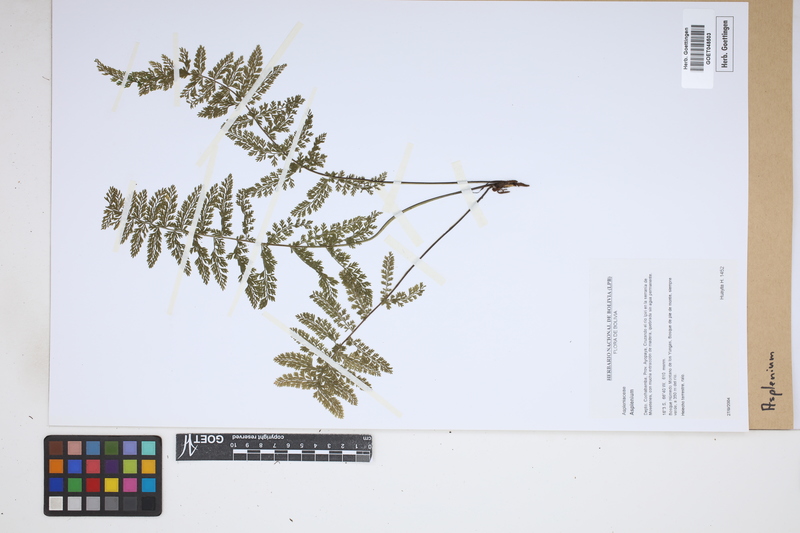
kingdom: Plantae
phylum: Tracheophyta
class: Polypodiopsida
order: Polypodiales
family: Aspleniaceae
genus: Asplenium
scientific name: Asplenium
